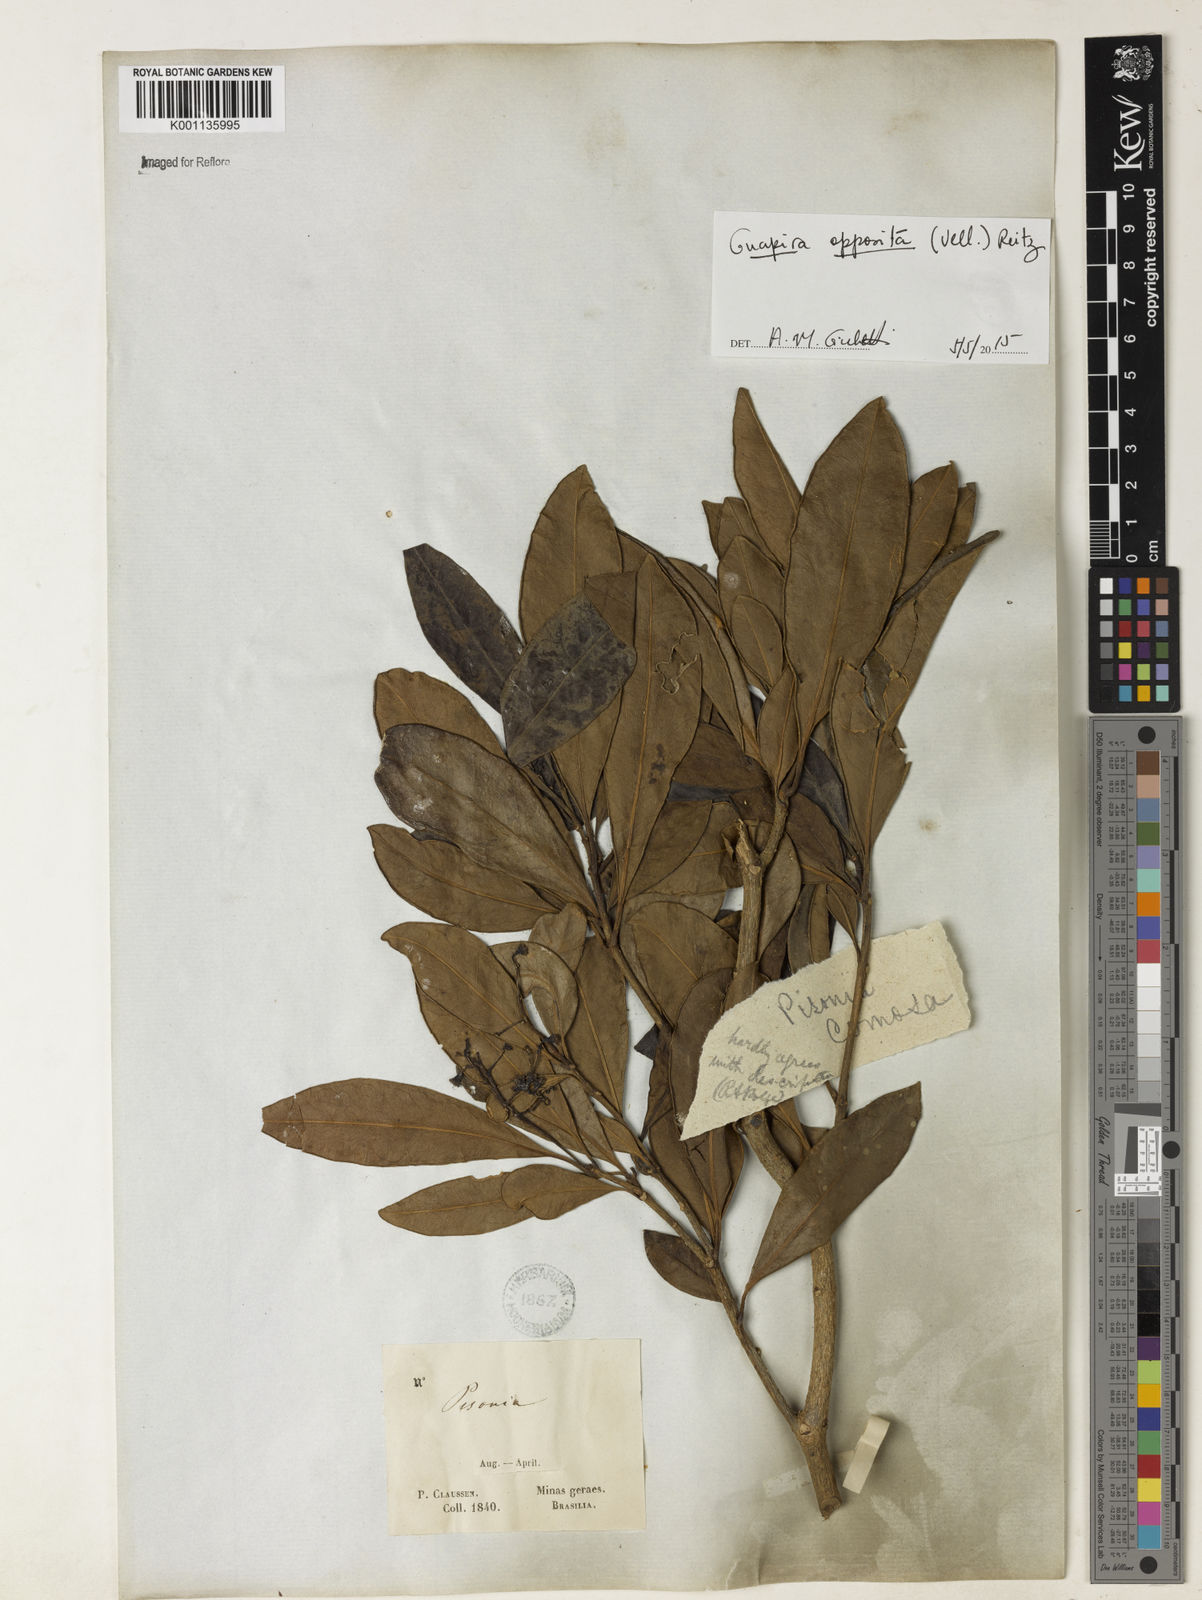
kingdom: Plantae
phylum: Tracheophyta
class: Magnoliopsida
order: Caryophyllales
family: Nyctaginaceae
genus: Guapira
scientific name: Guapira opposita
